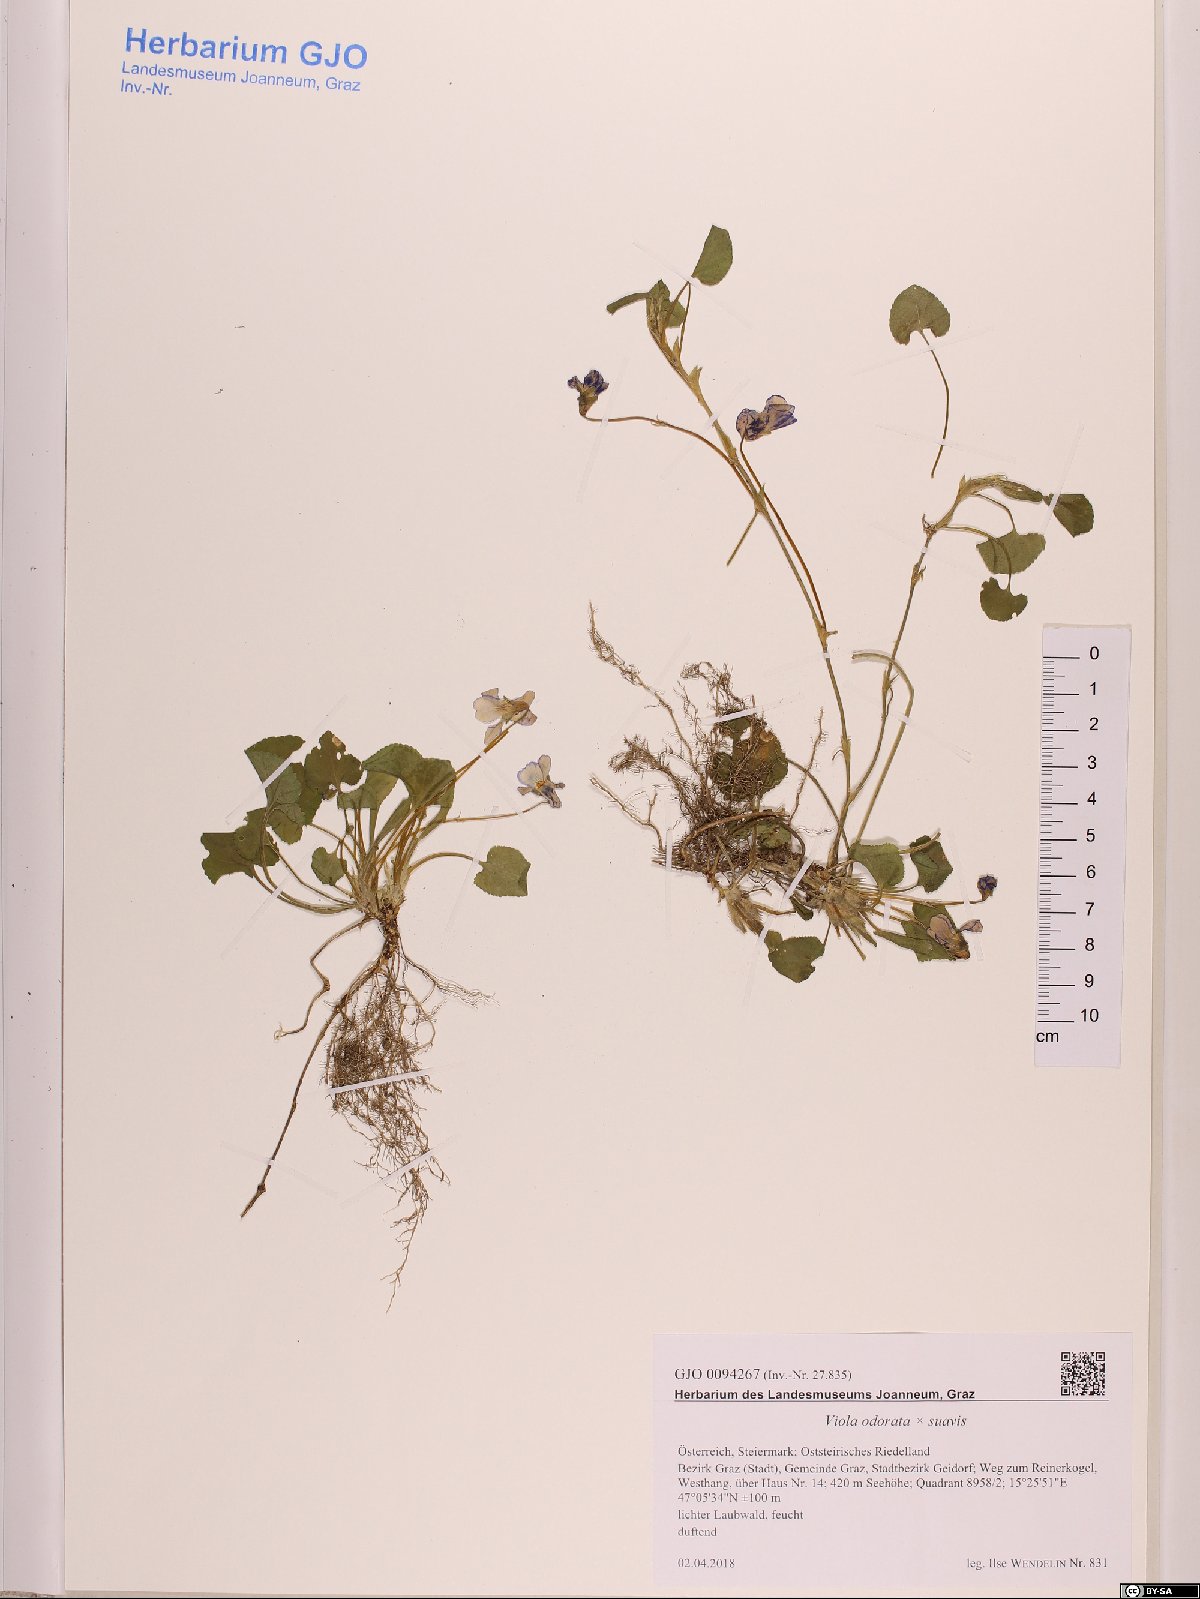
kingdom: Plantae
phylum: Tracheophyta
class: Magnoliopsida
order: Malpighiales
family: Violaceae
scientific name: Violaceae
